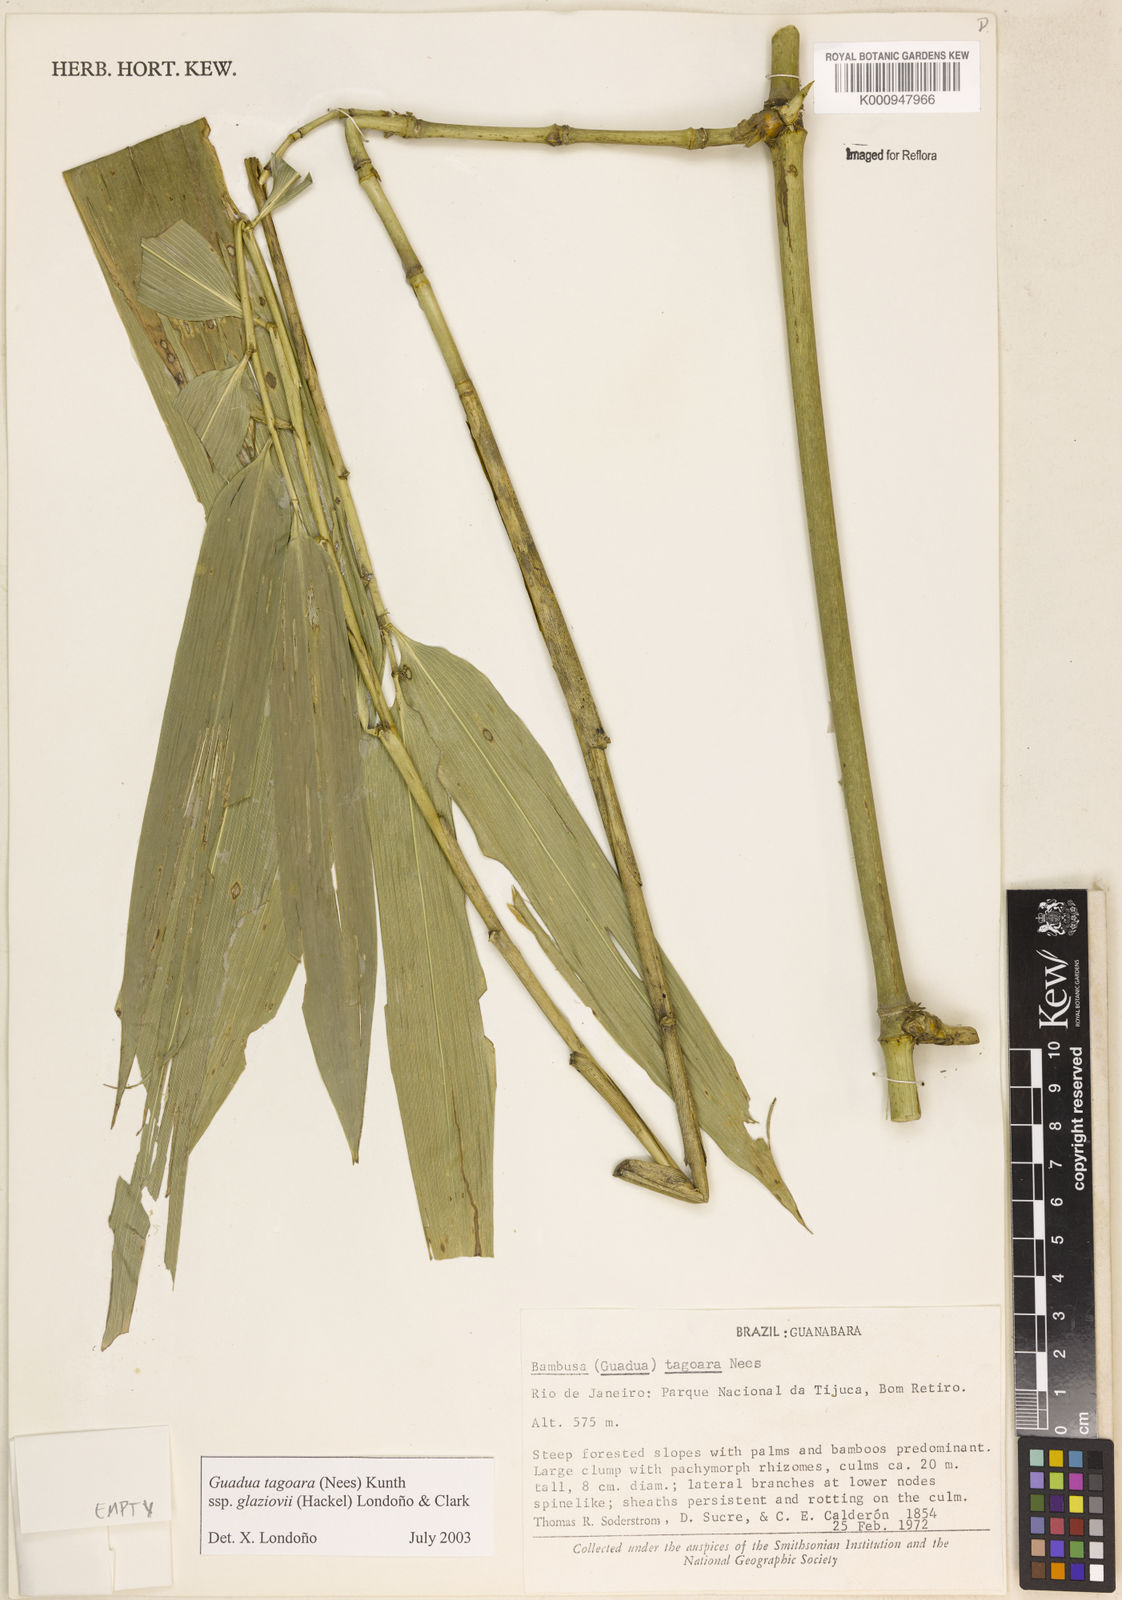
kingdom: Plantae
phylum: Tracheophyta
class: Liliopsida
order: Poales
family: Poaceae
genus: Guadua
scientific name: Guadua tagoara
